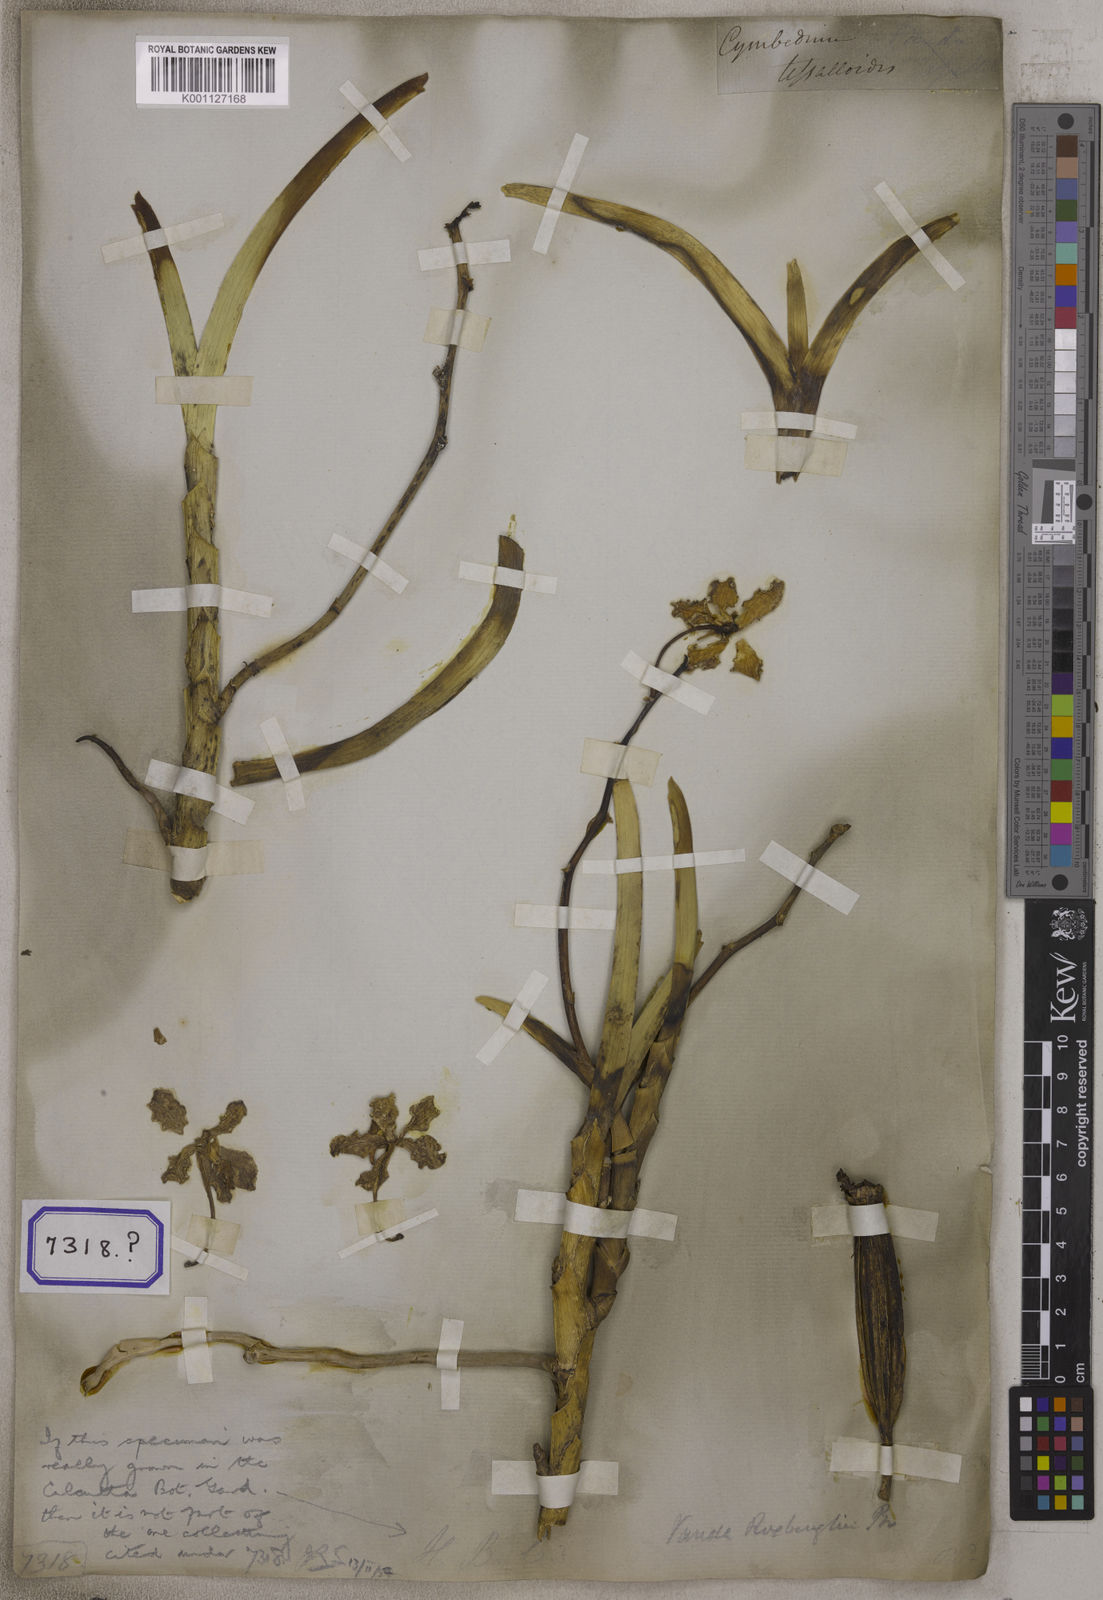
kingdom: Plantae
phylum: Tracheophyta
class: Liliopsida
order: Asparagales
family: Orchidaceae
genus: Aerides
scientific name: Aerides
